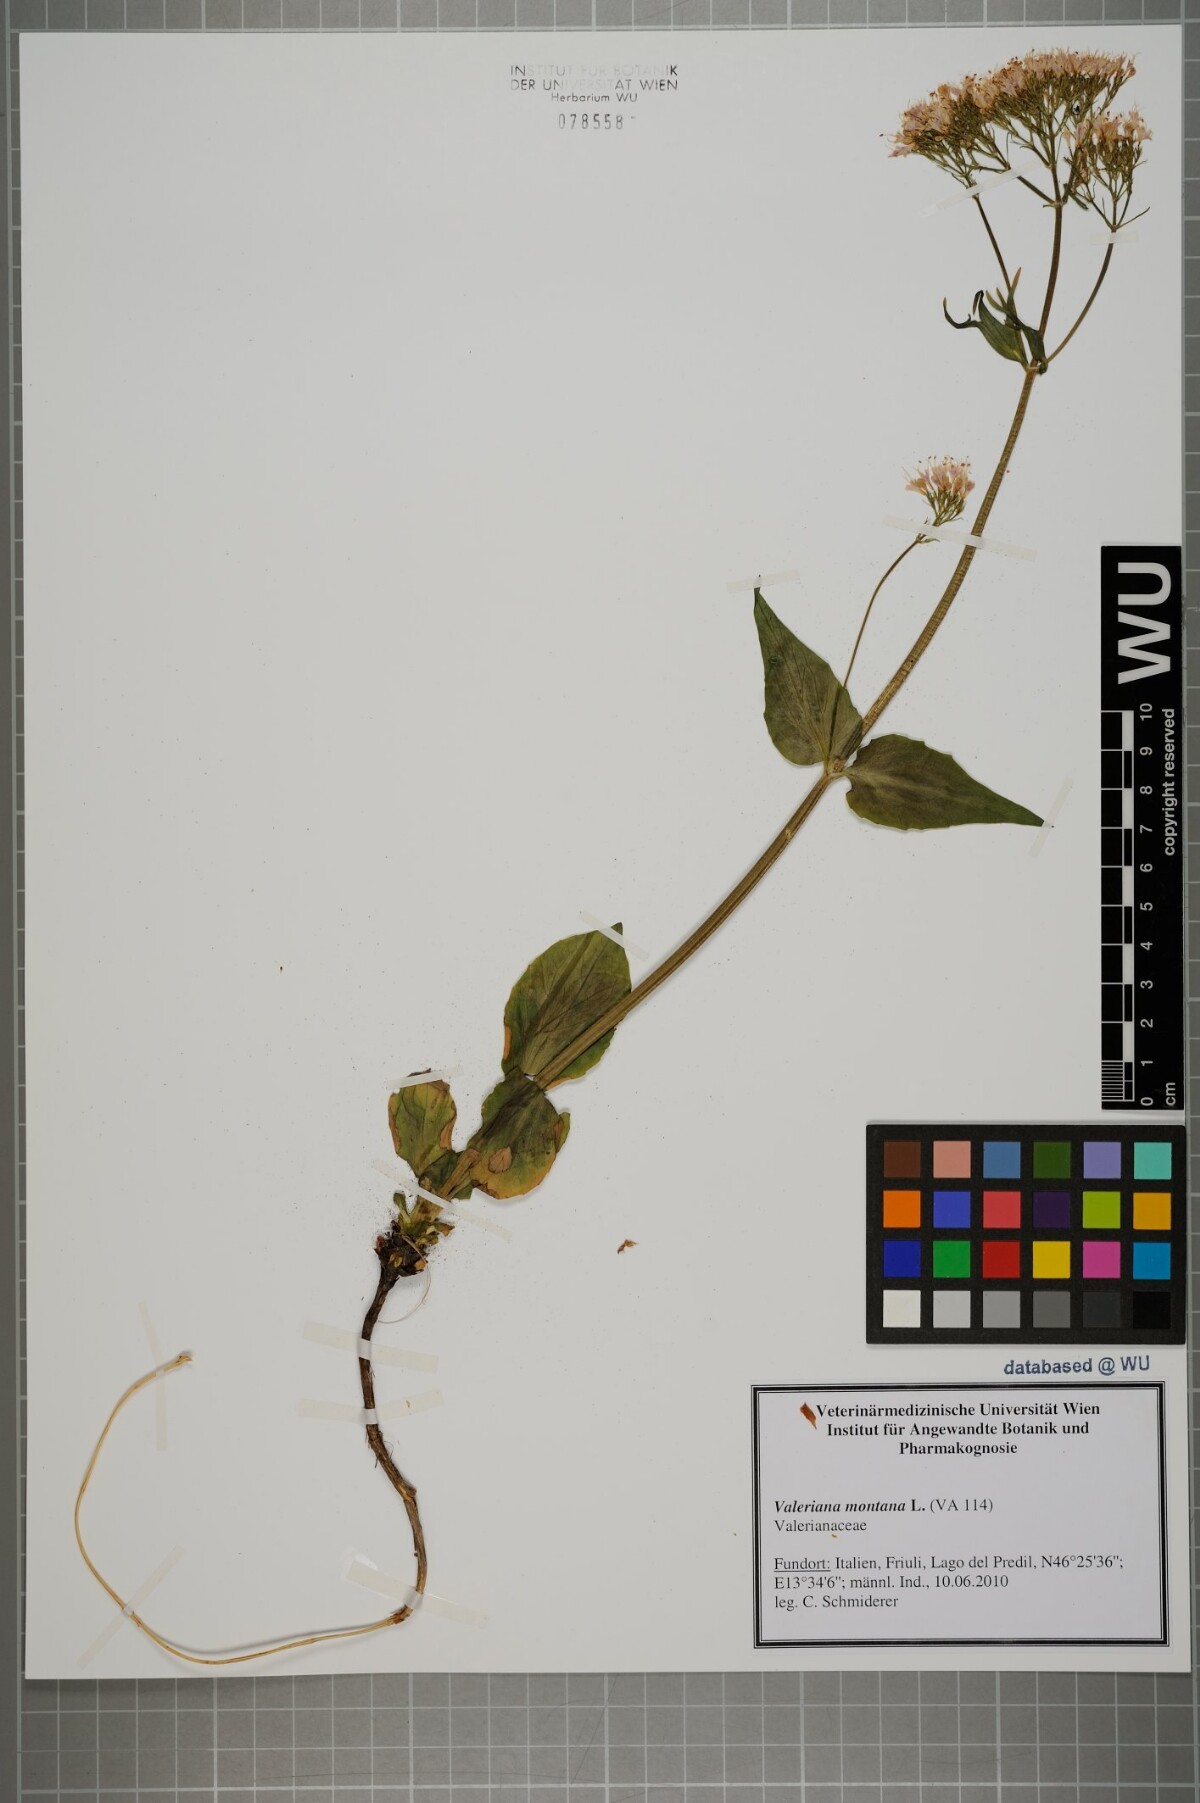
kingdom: Plantae
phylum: Tracheophyta
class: Magnoliopsida
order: Dipsacales
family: Caprifoliaceae
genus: Valeriana
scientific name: Valeriana montana
